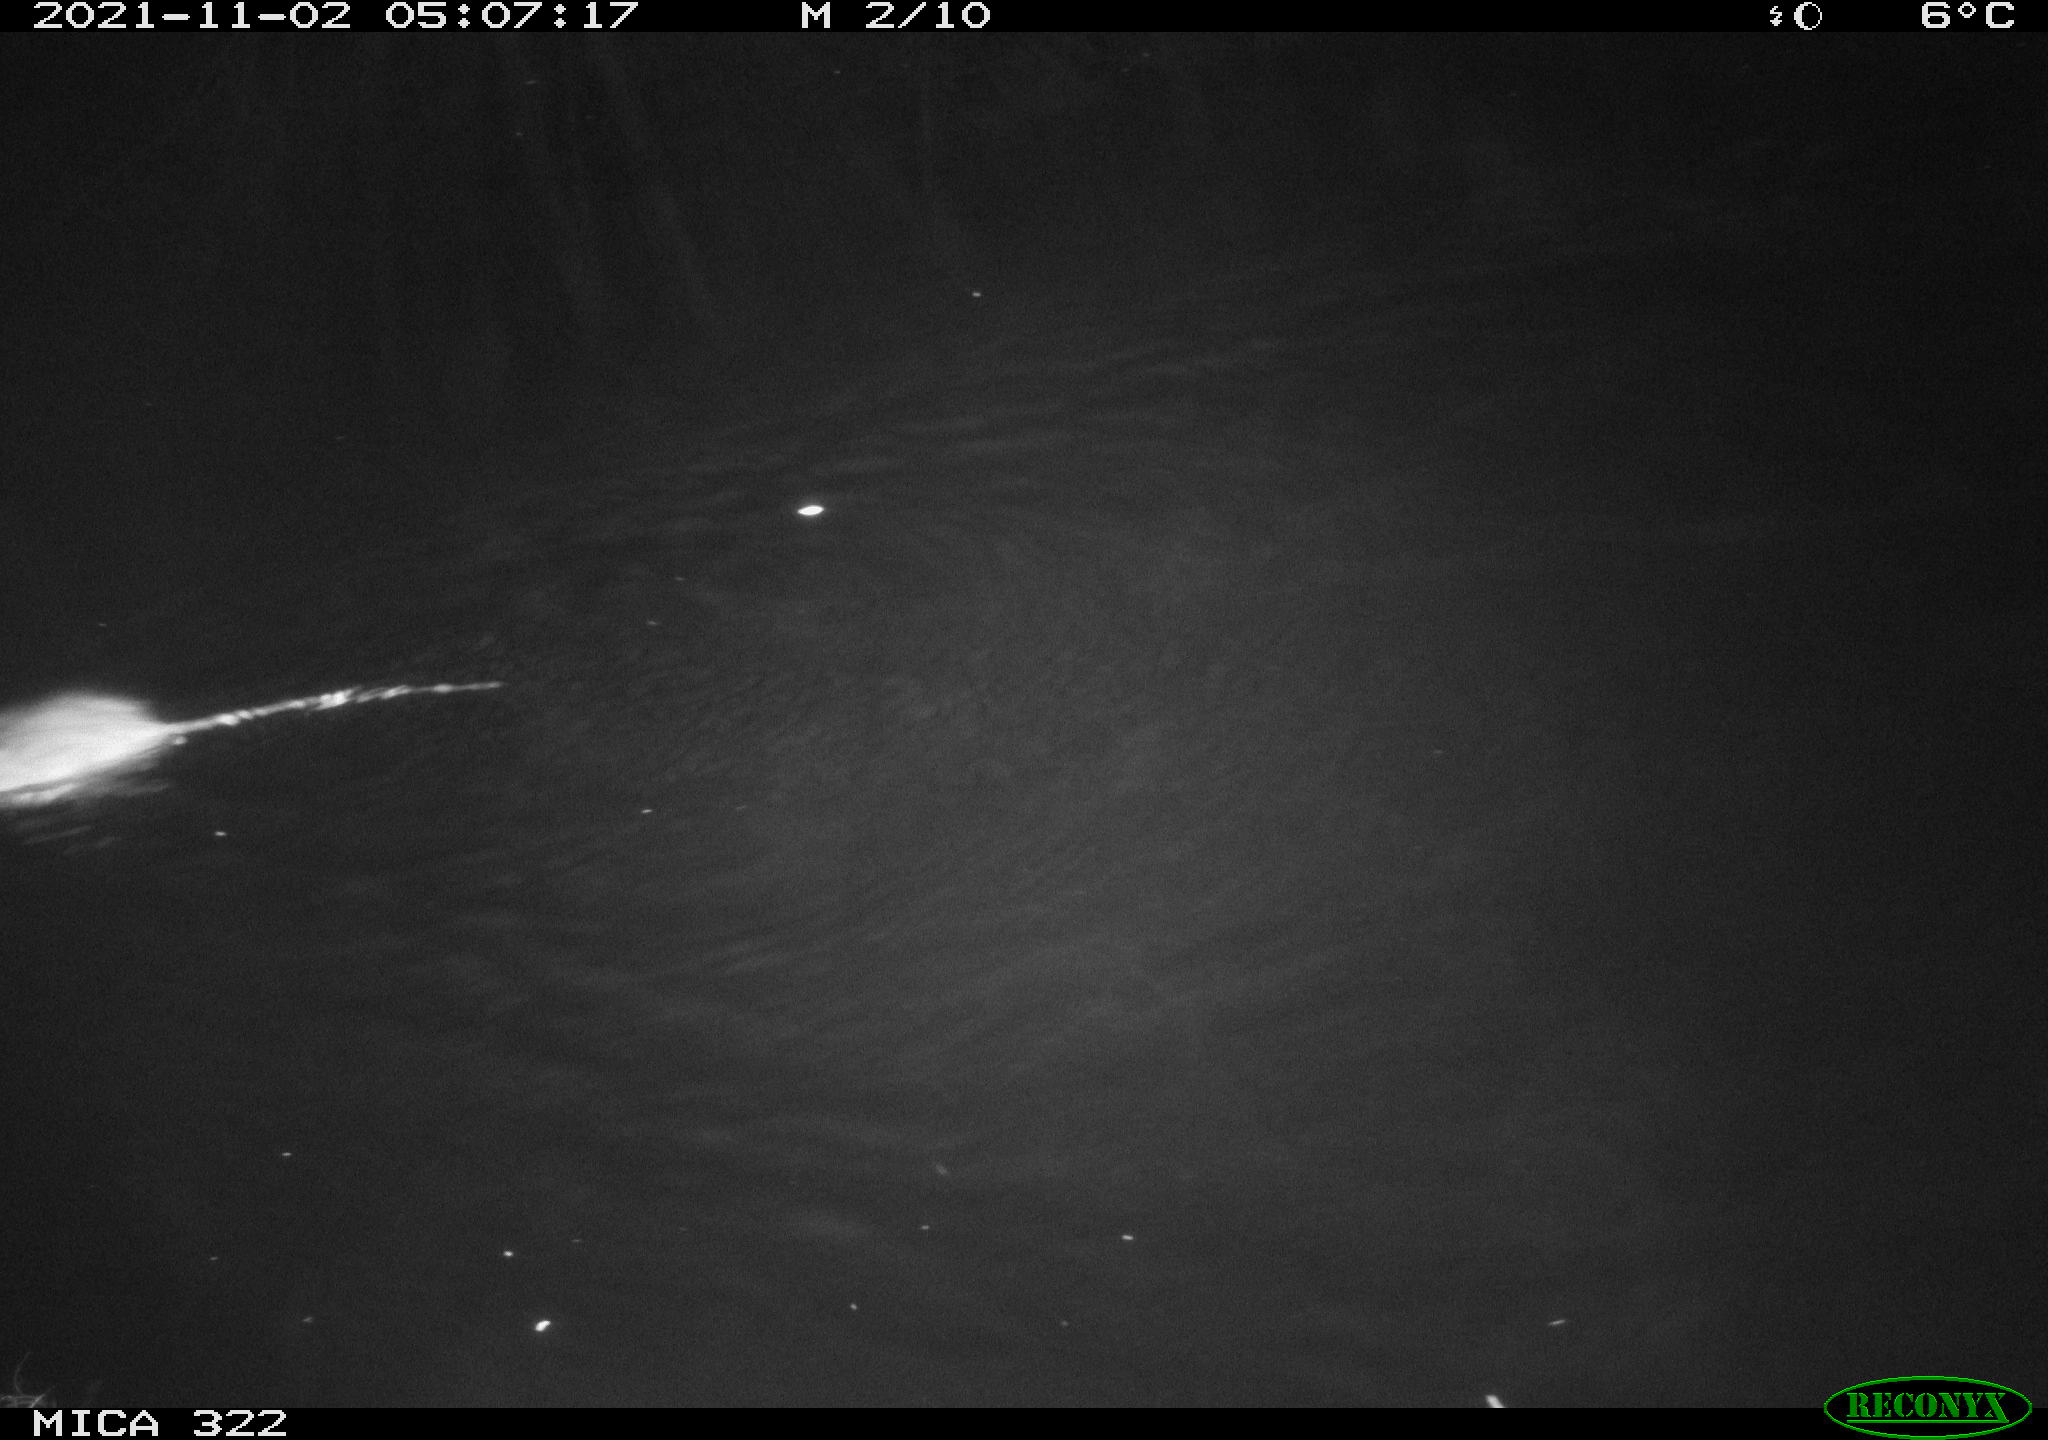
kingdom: Animalia
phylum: Chordata
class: Mammalia
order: Rodentia
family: Muridae
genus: Rattus
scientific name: Rattus norvegicus
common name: Brown rat
